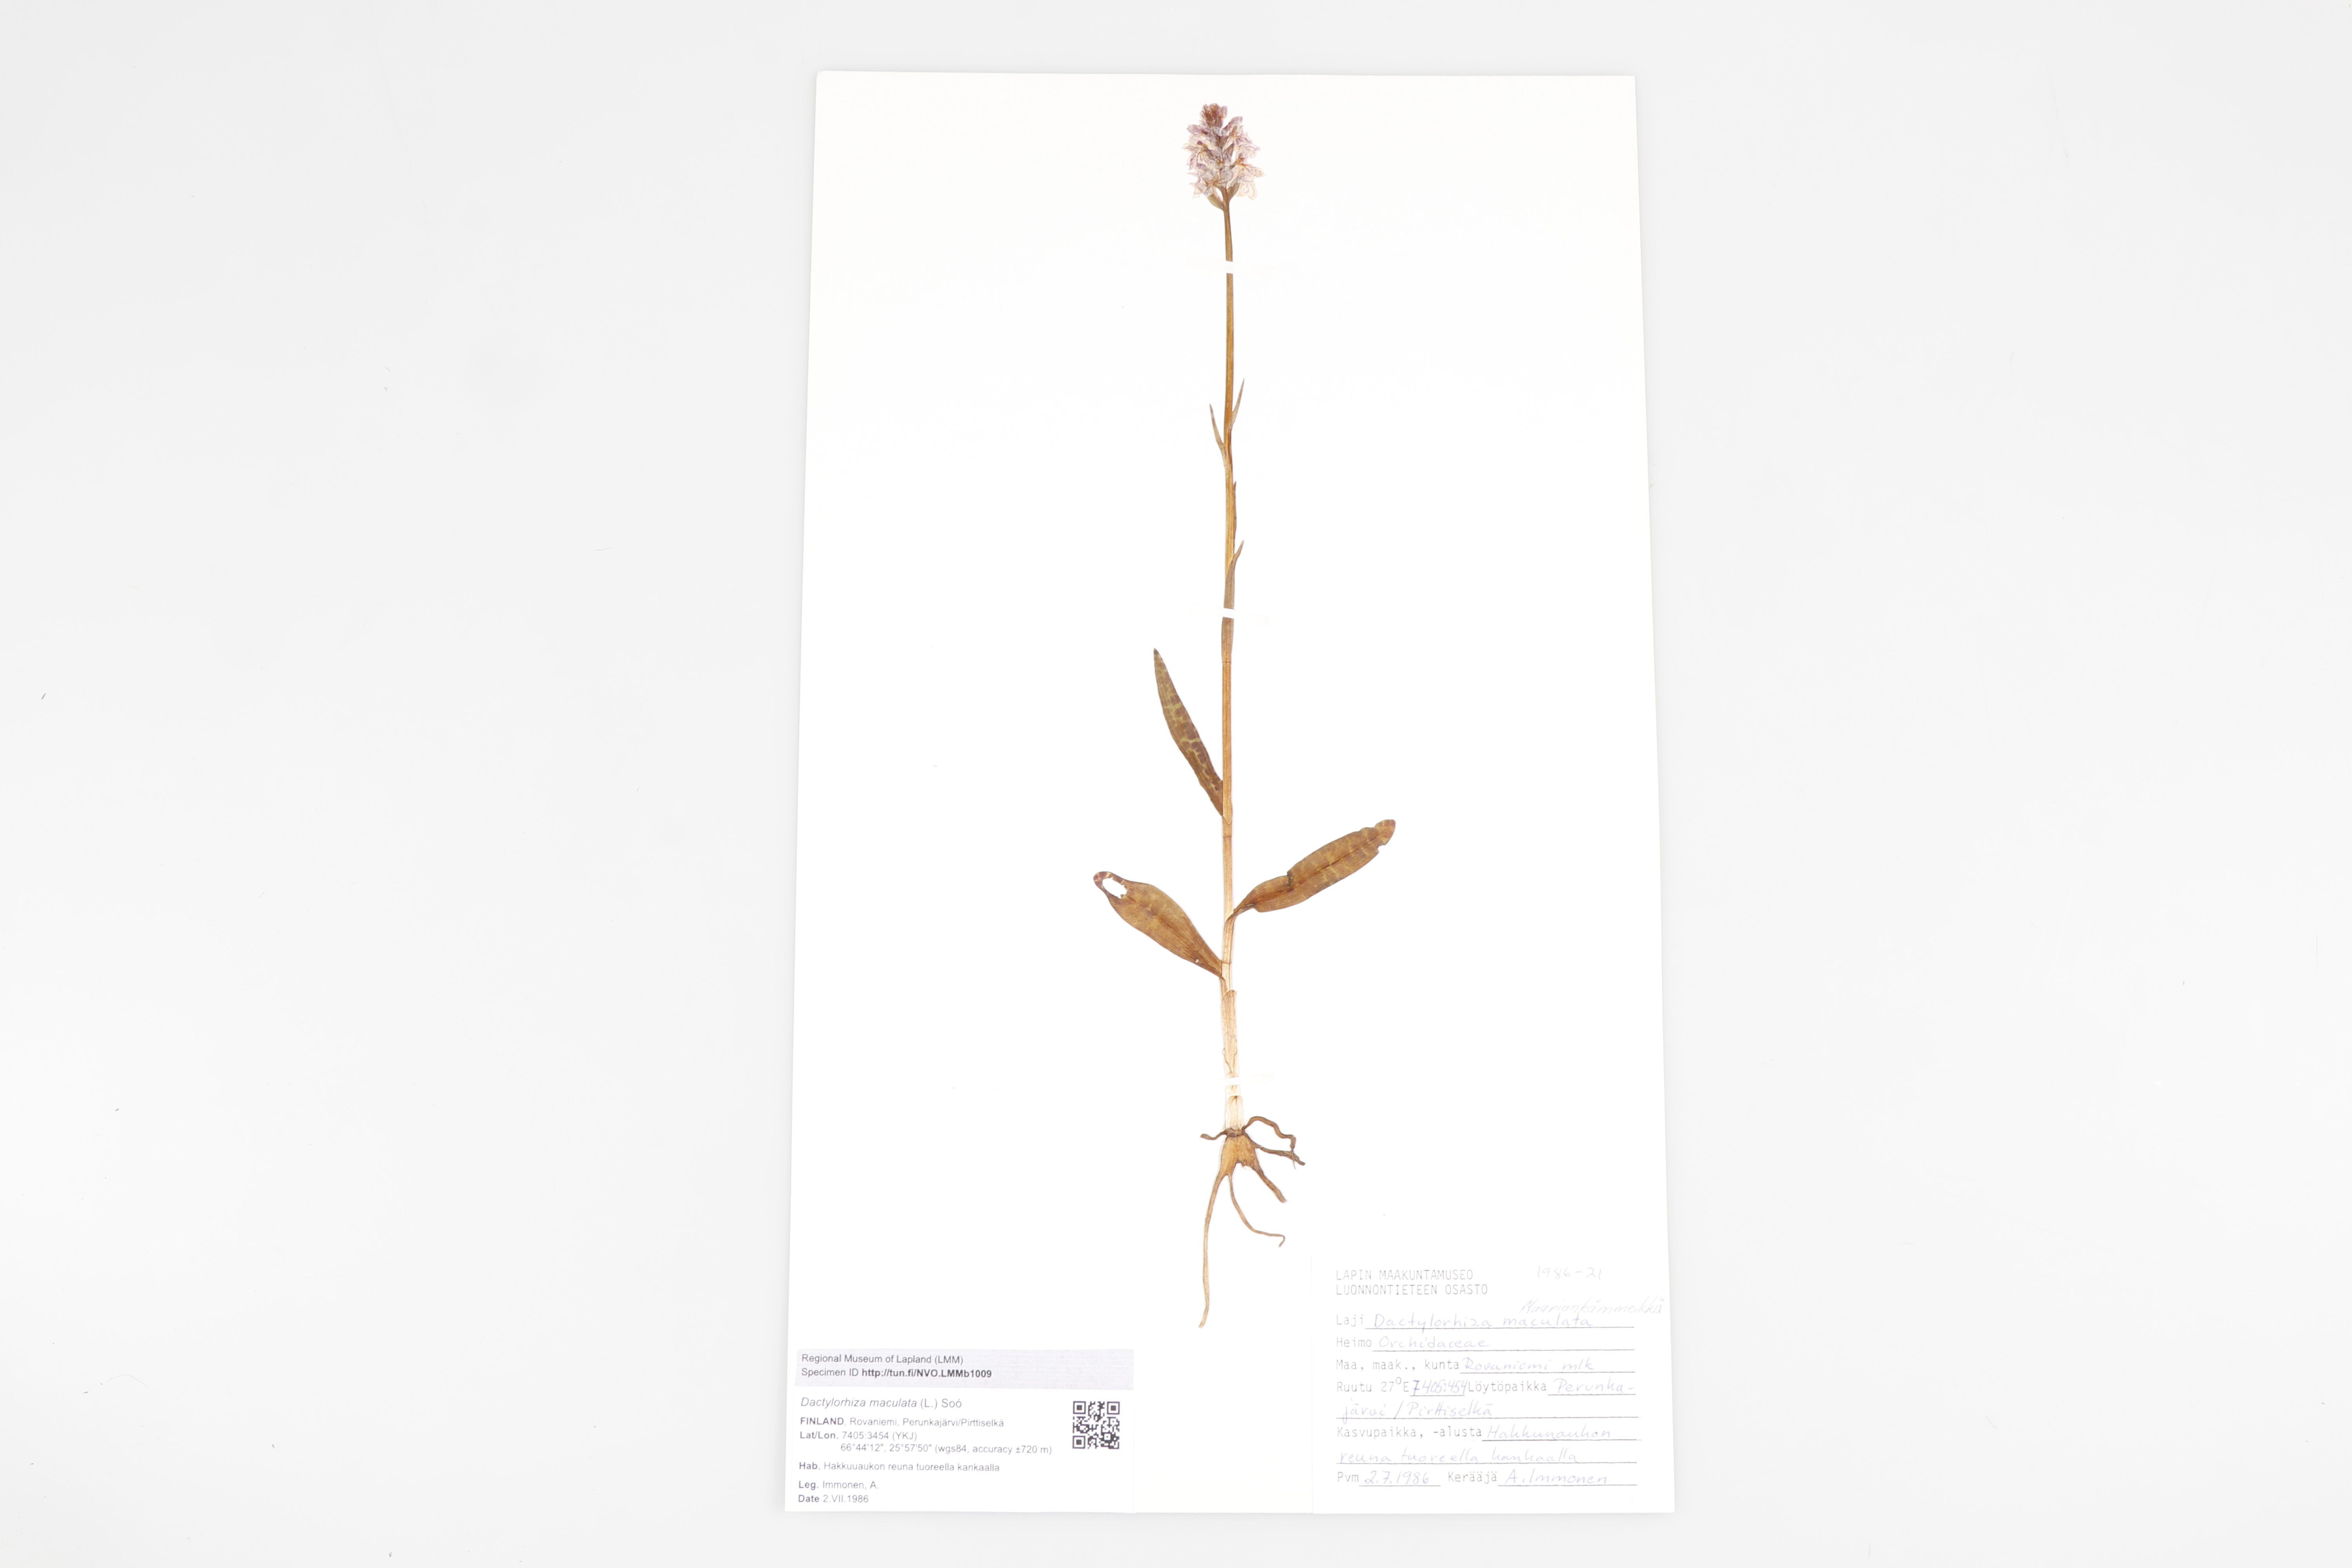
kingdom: Plantae
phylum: Tracheophyta
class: Liliopsida
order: Asparagales
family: Orchidaceae
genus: Dactylorhiza
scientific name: Dactylorhiza maculata
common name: Heath spotted-orchid
